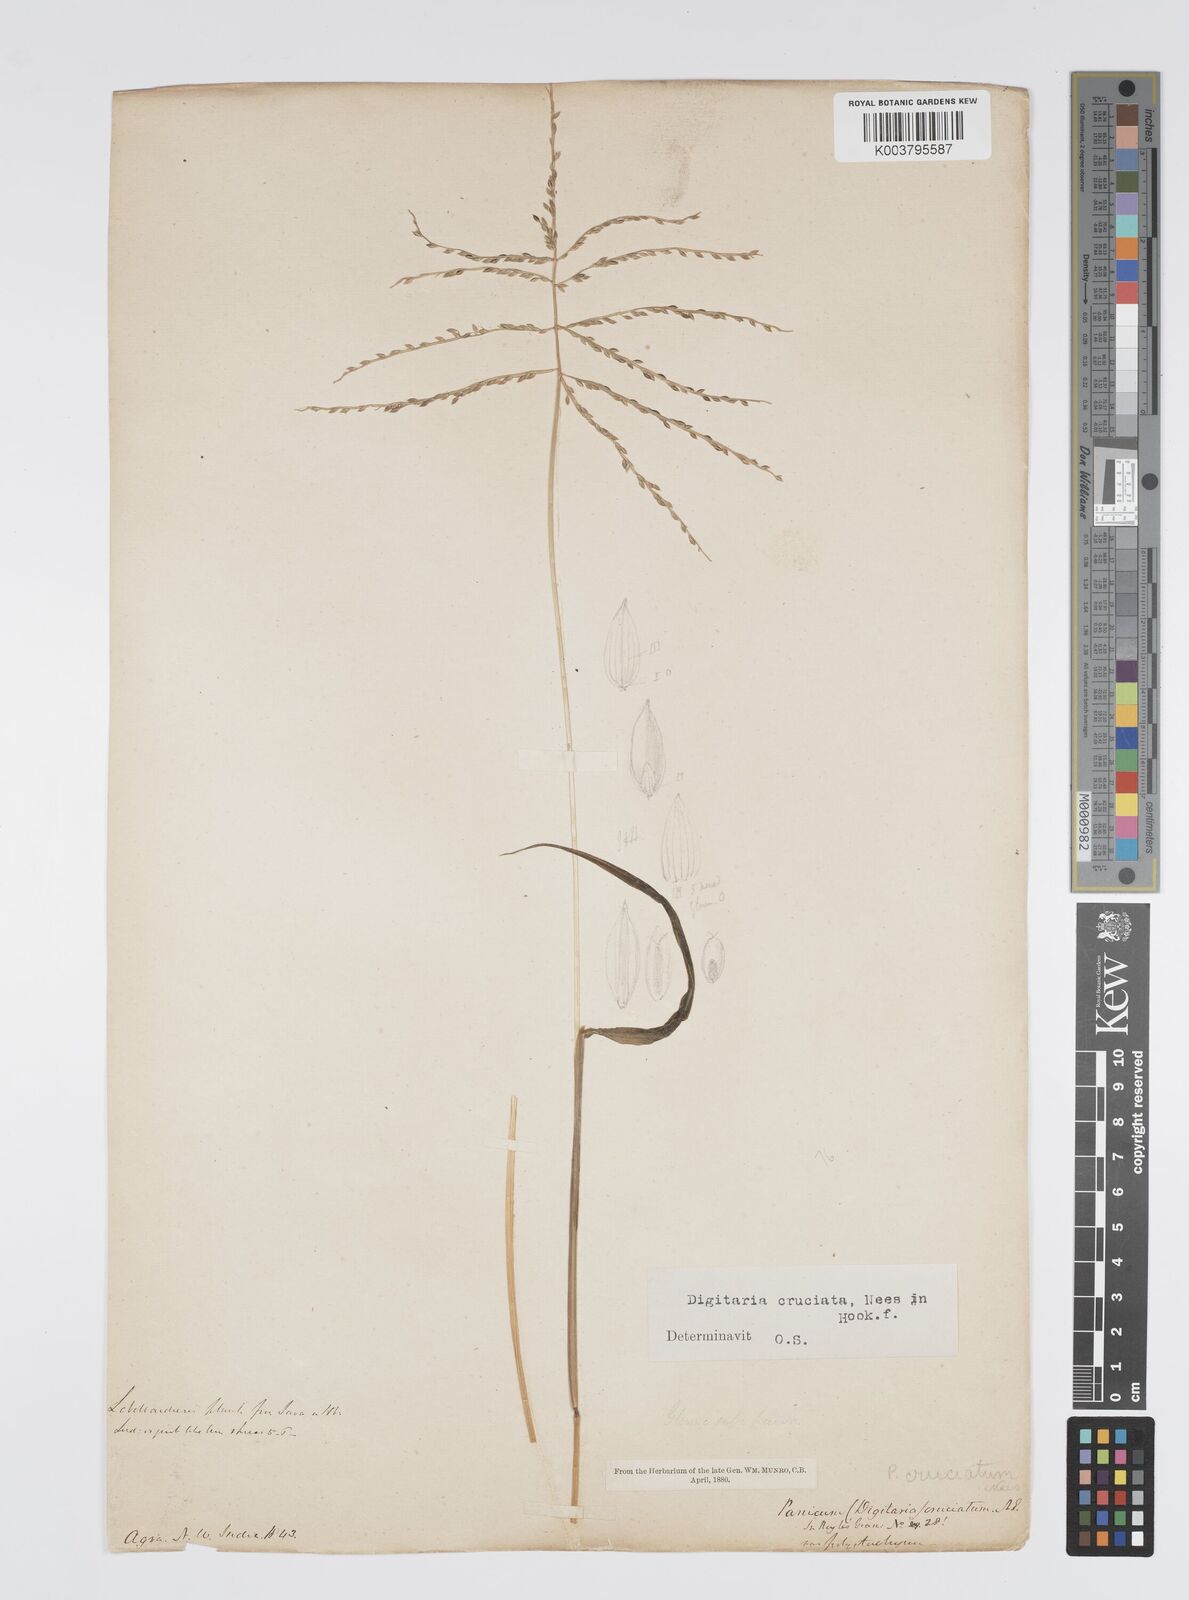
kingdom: Plantae
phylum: Tracheophyta
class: Liliopsida
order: Poales
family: Poaceae
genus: Digitaria
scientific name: Digitaria sanguinalis
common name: Hairy crabgrass
